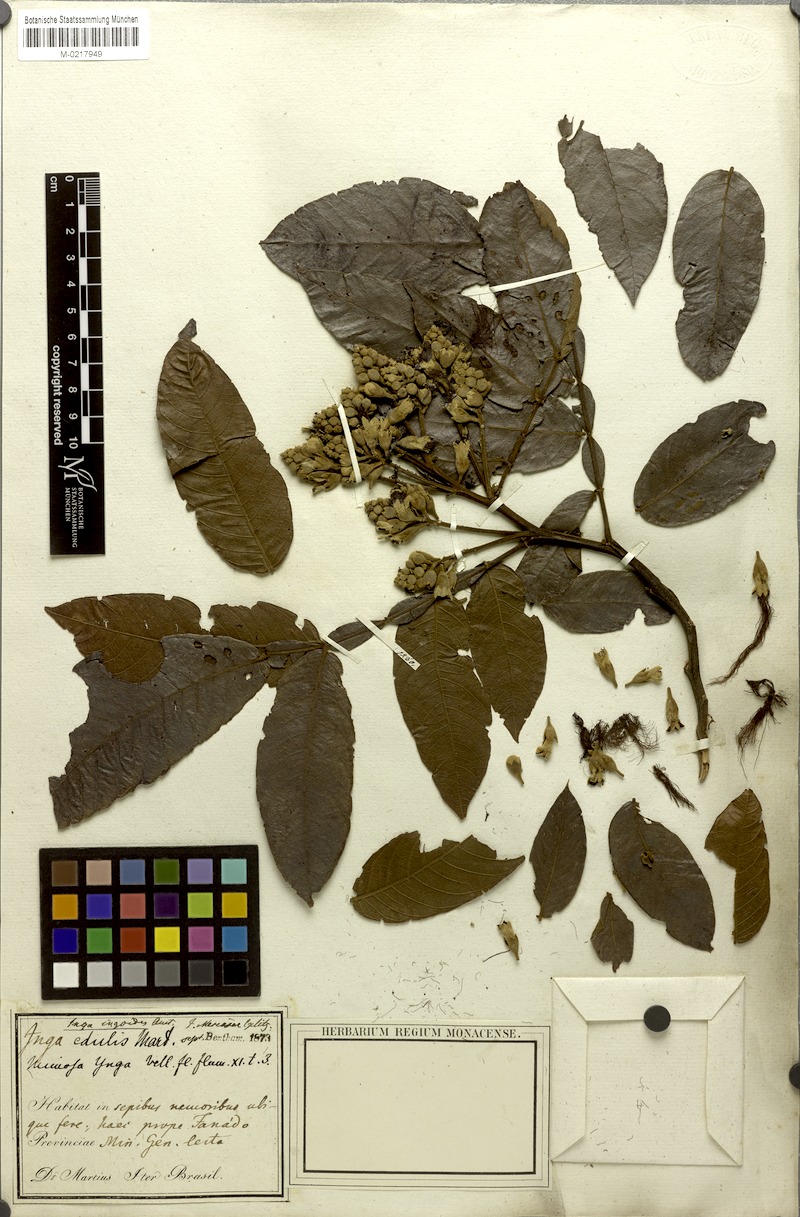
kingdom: Plantae
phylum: Tracheophyta
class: Magnoliopsida
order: Fabales
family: Fabaceae
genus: Inga
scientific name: Inga ingoides
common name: Spanish ash
